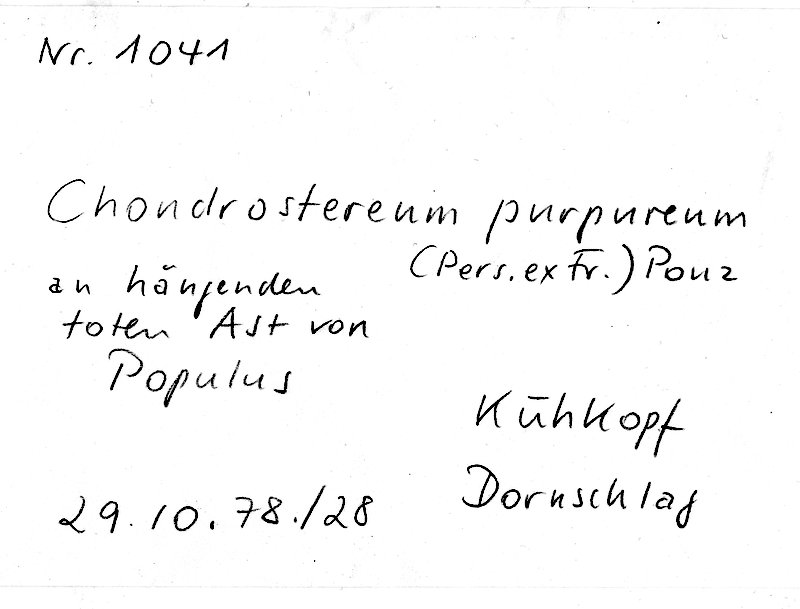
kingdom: Plantae
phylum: Tracheophyta
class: Magnoliopsida
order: Malpighiales
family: Salicaceae
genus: Populus
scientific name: Populus
